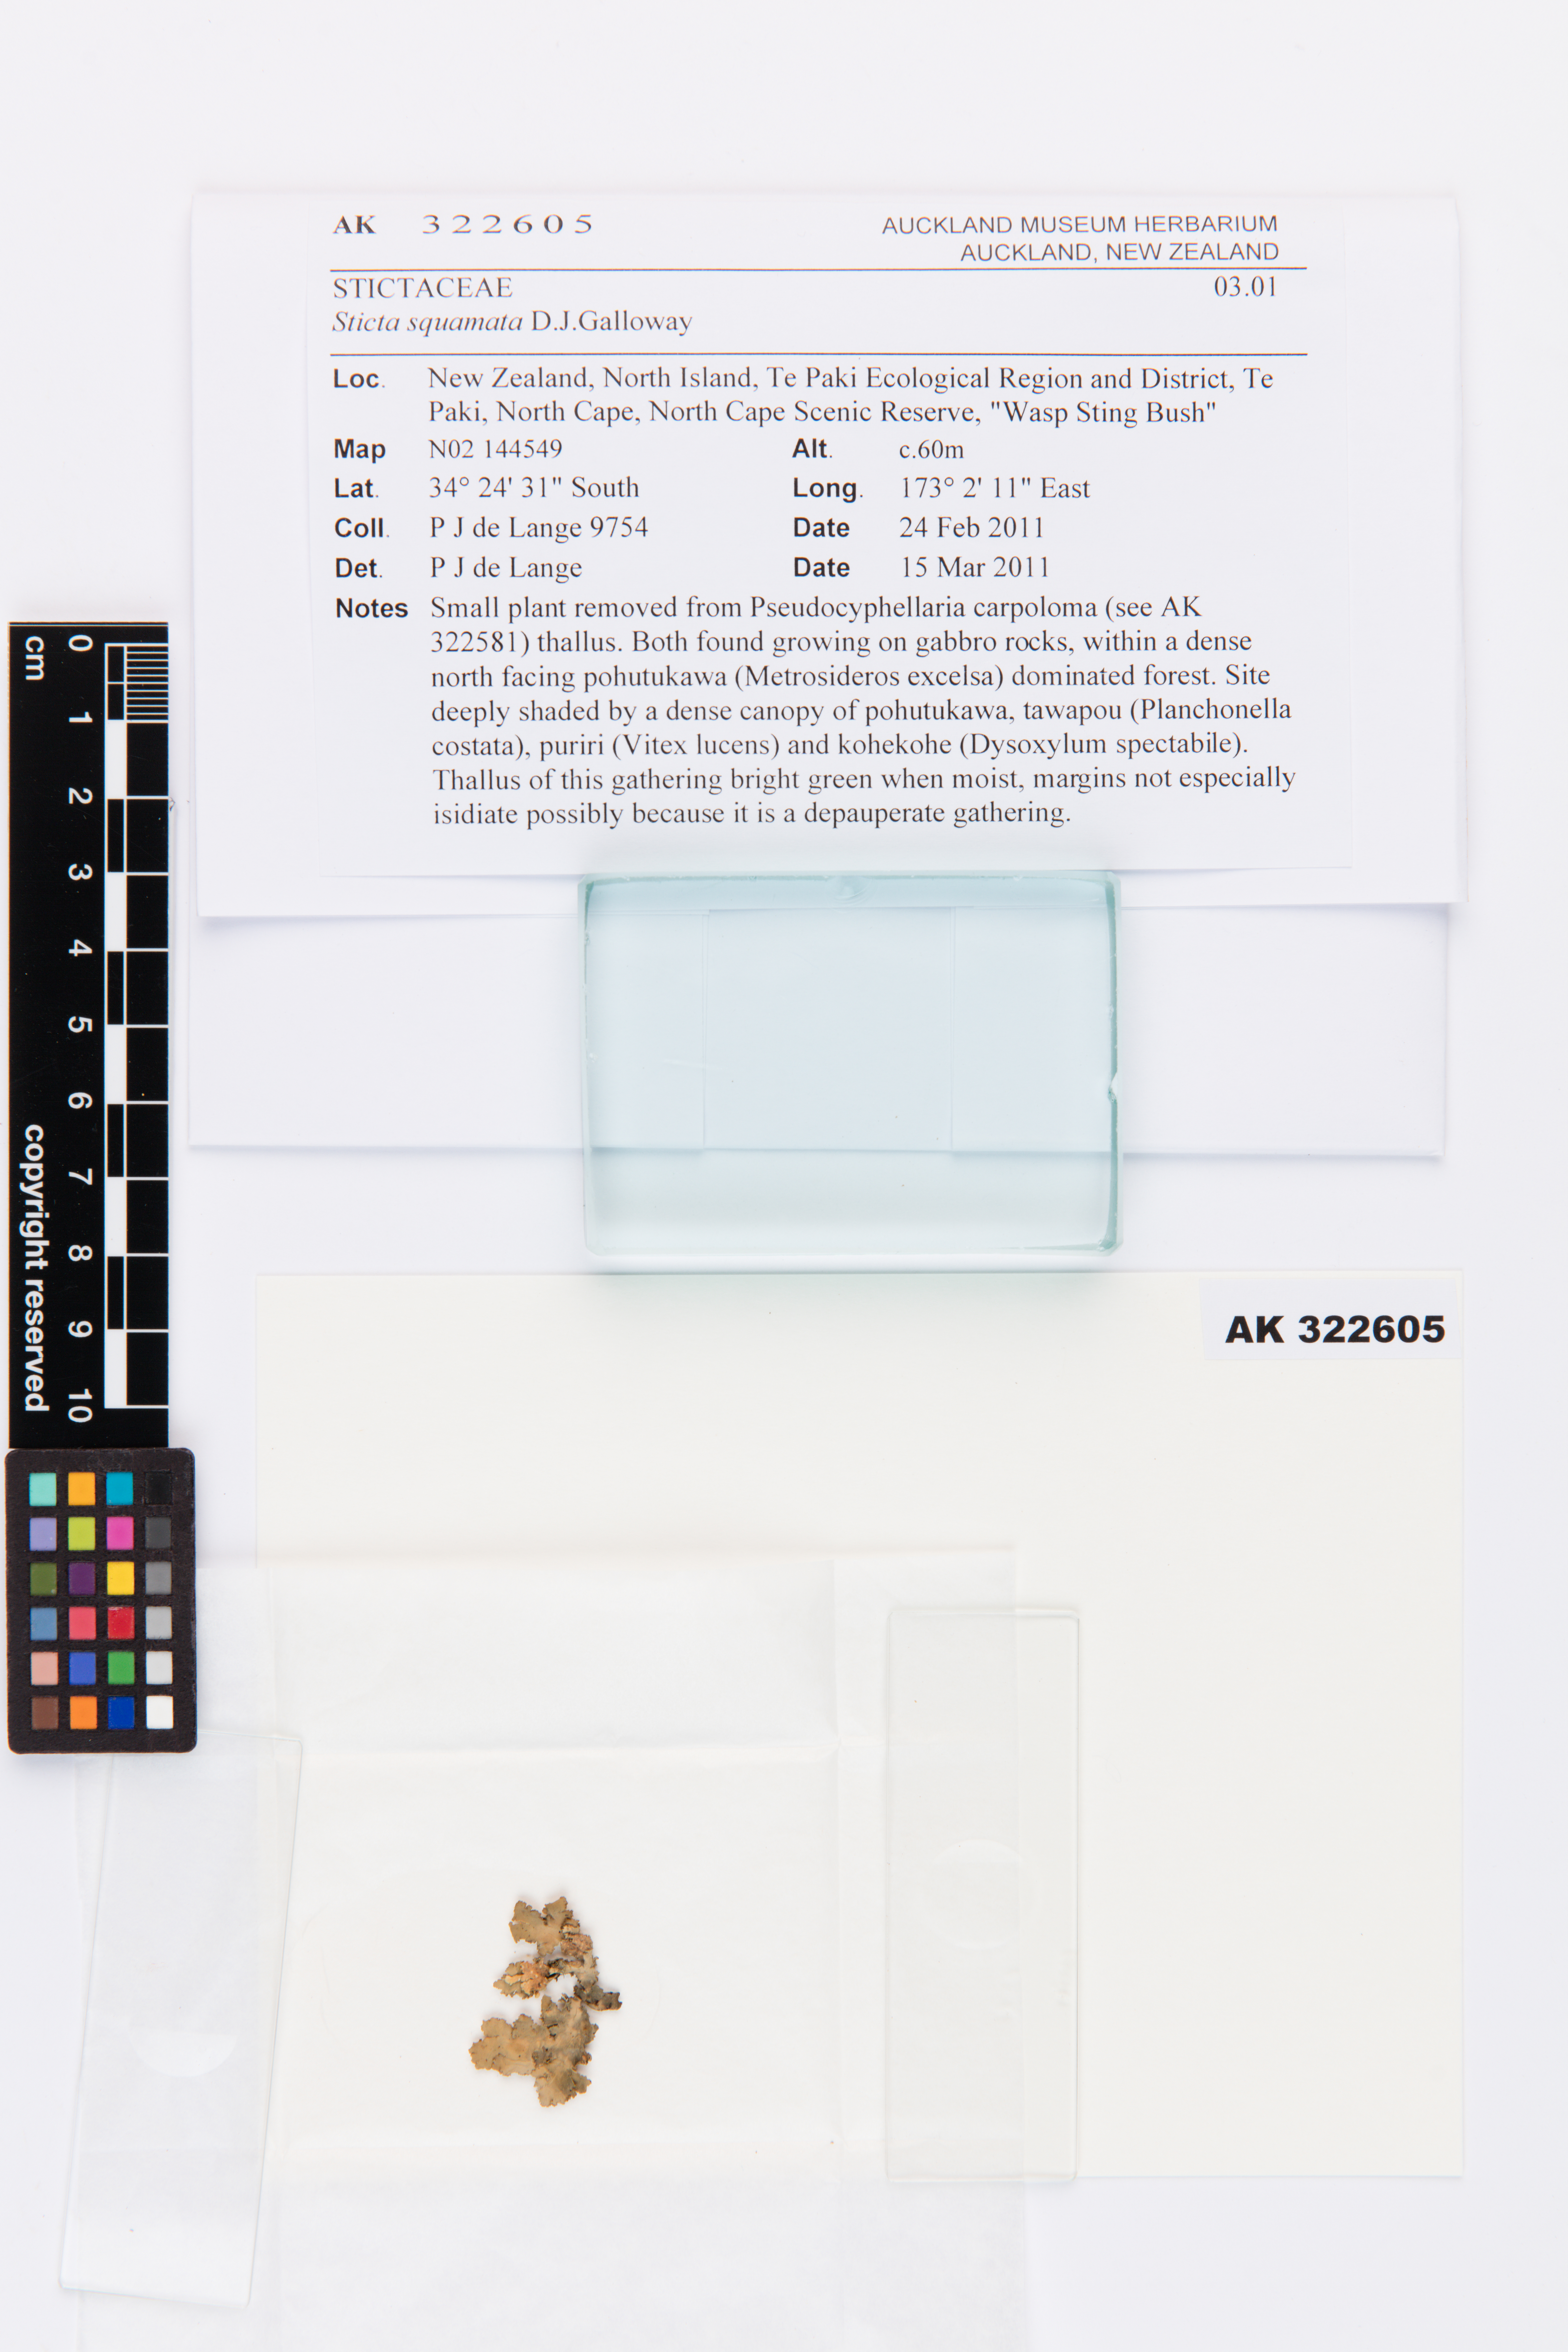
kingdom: Fungi
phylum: Ascomycota
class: Lecanoromycetes
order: Peltigerales
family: Lobariaceae
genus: Sticta
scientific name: Sticta squamata
